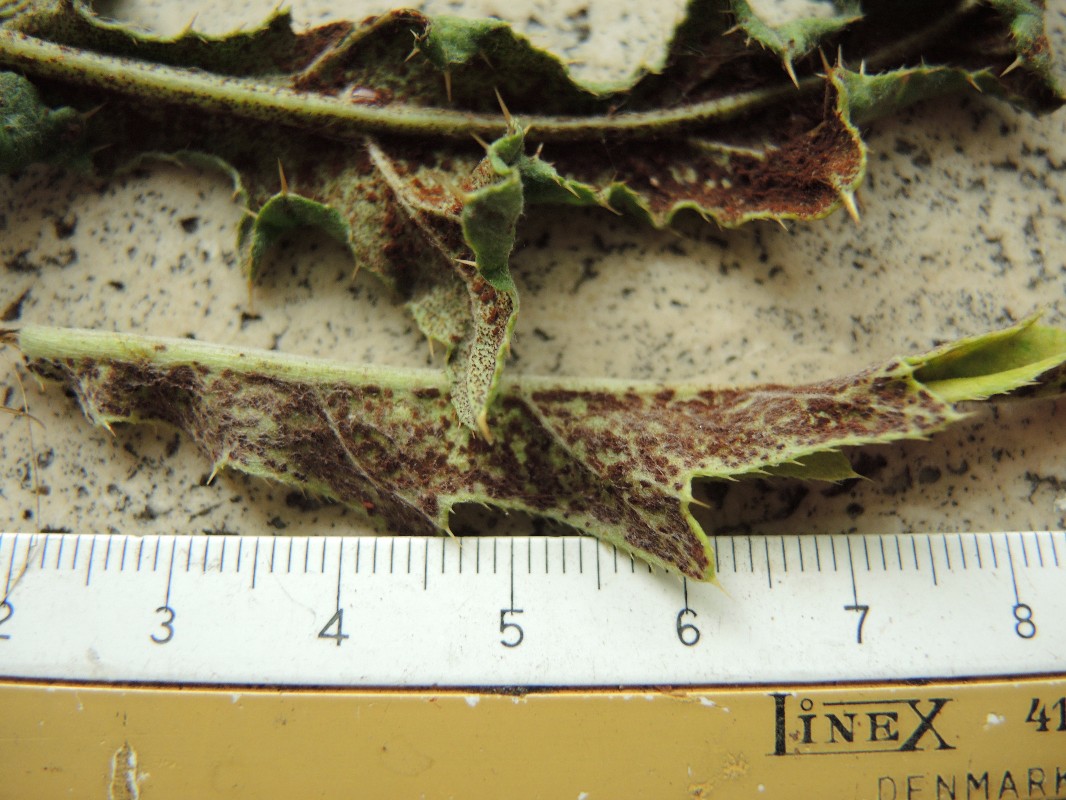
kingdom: Fungi
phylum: Basidiomycota
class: Pucciniomycetes
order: Pucciniales
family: Pucciniaceae
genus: Puccinia
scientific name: Puccinia suaveolens
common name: tidsel-tvecellerust
